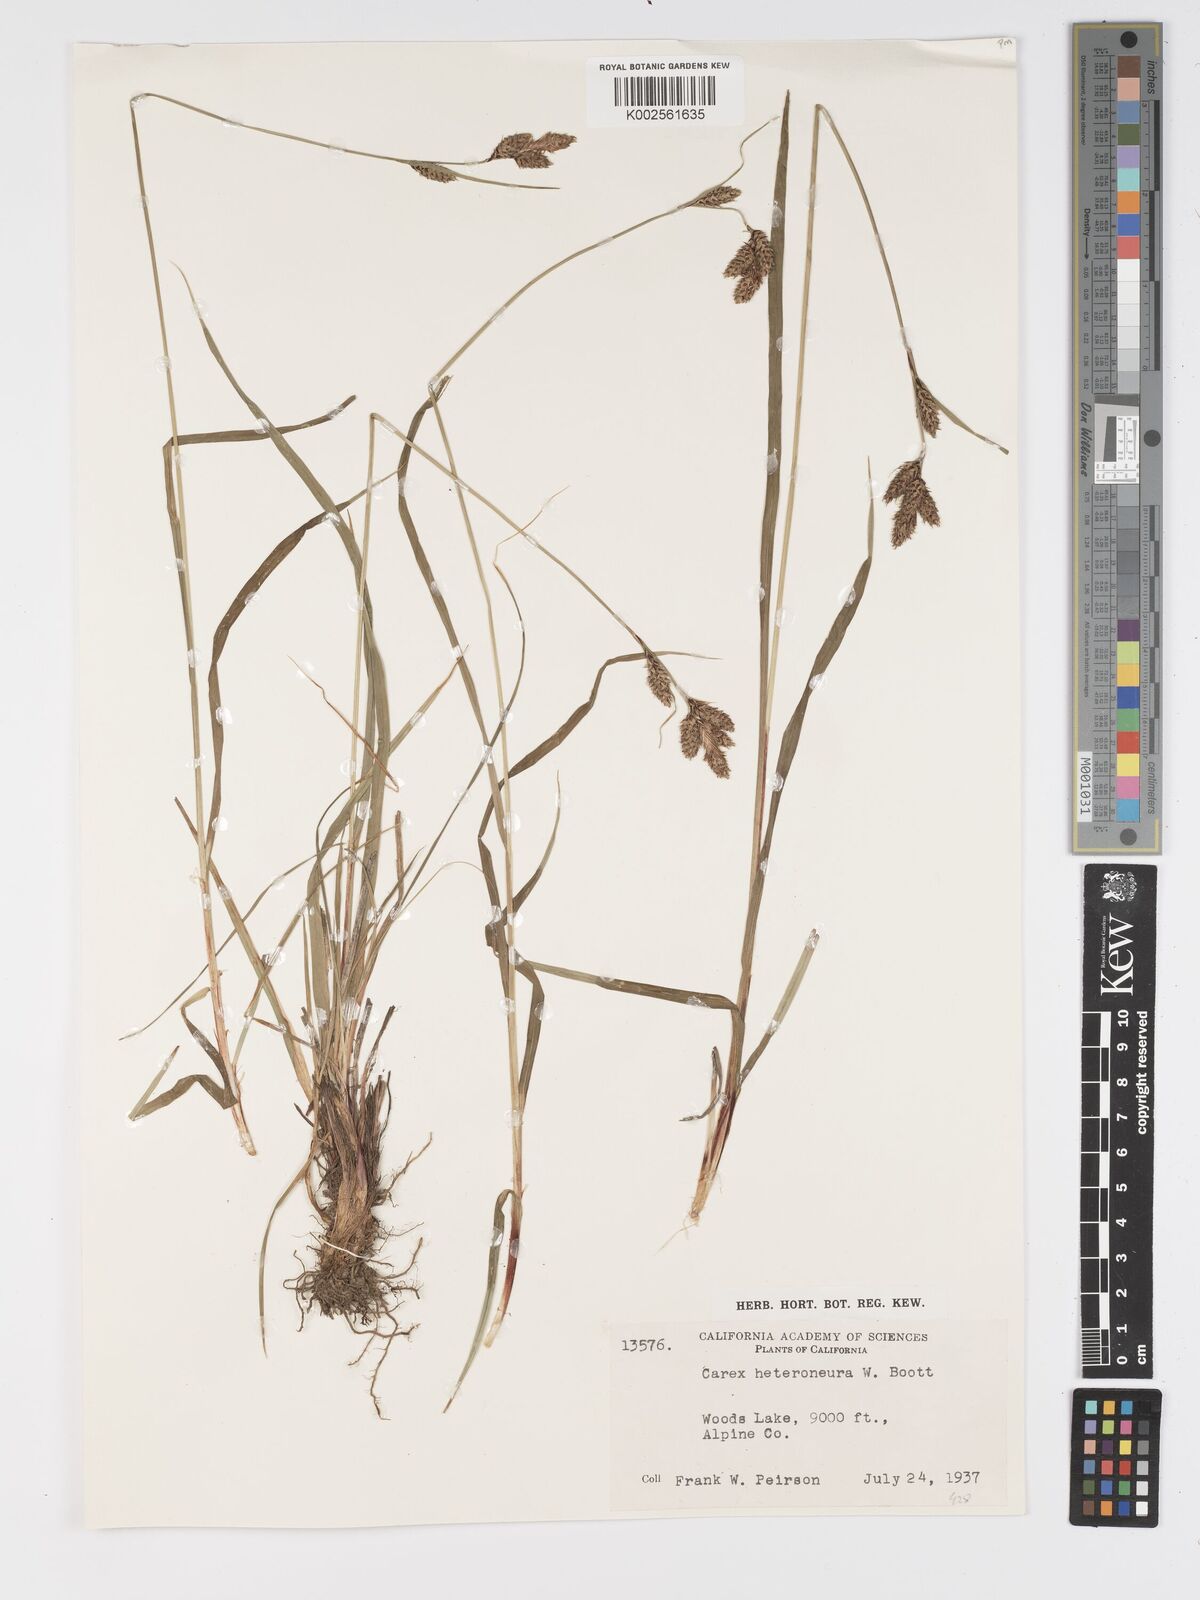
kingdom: Plantae
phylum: Tracheophyta
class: Liliopsida
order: Poales
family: Cyperaceae
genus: Carex
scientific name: Carex heteroneura
